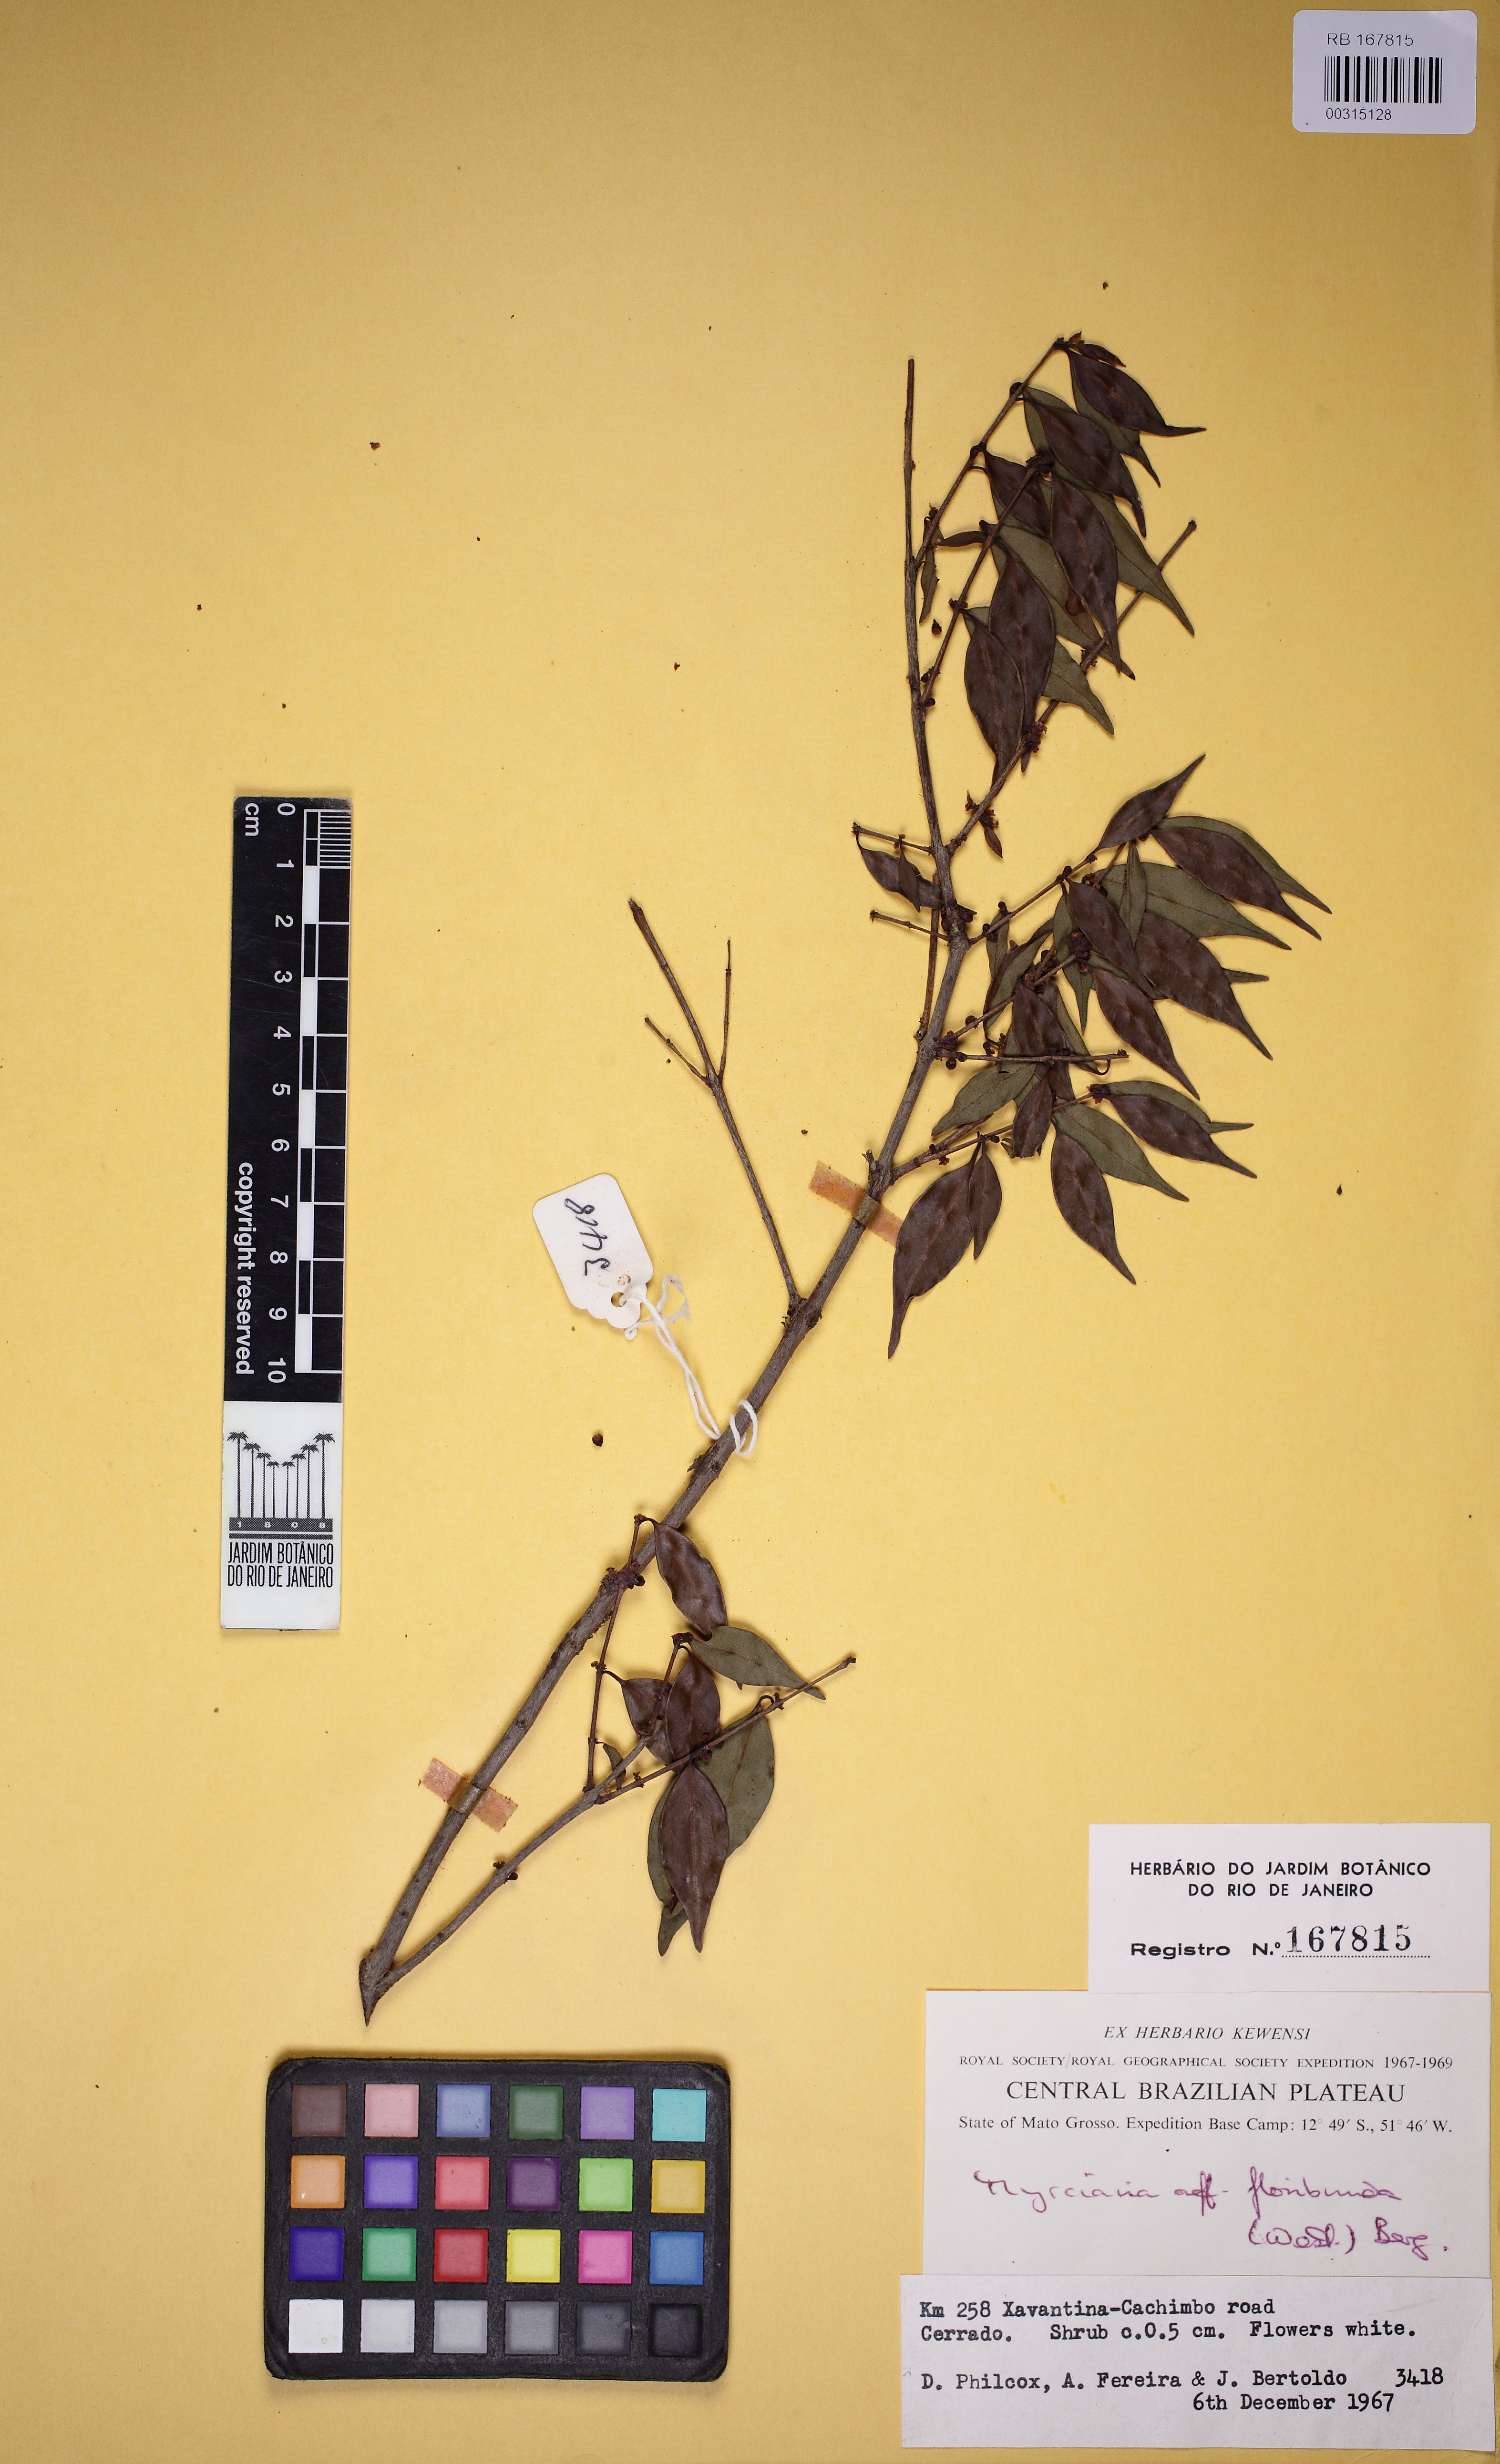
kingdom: Plantae
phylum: Tracheophyta
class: Magnoliopsida
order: Myrtales
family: Myrtaceae
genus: Myrciaria
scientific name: Myrciaria floribunda
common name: Guavaberry
